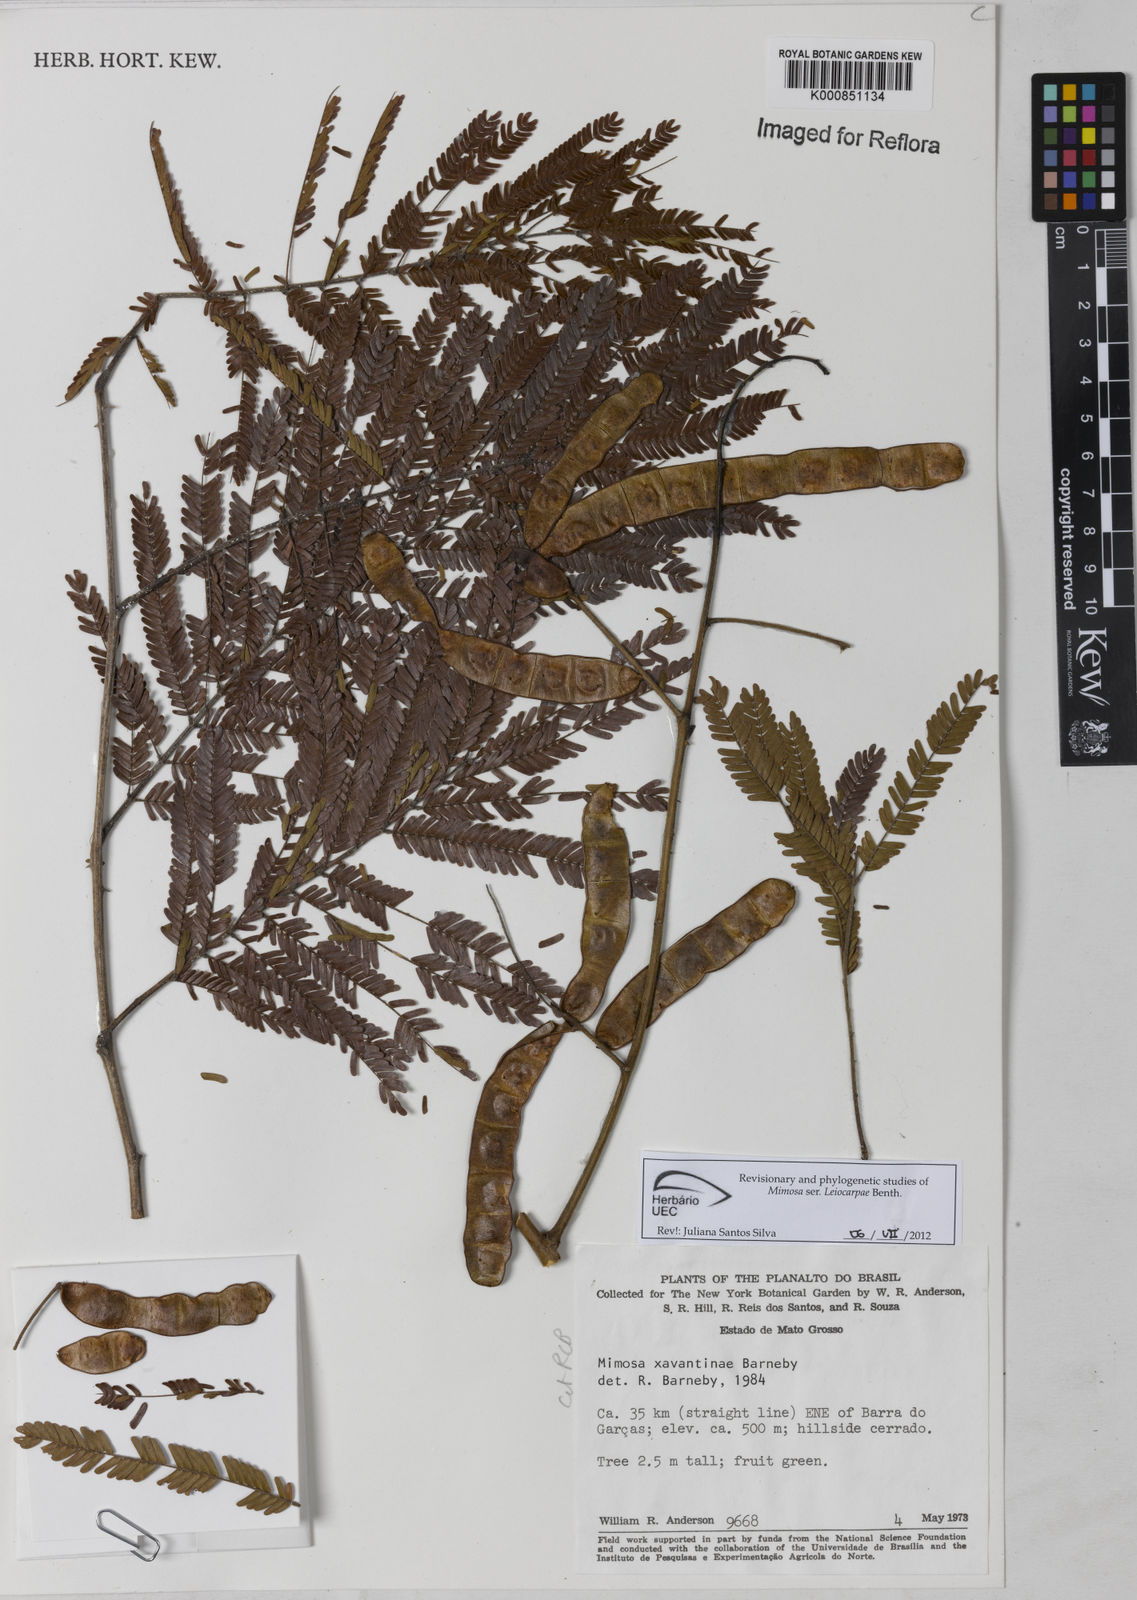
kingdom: Plantae
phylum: Tracheophyta
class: Magnoliopsida
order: Fabales
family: Fabaceae
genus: Mimosa
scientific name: Mimosa apodocarpa
